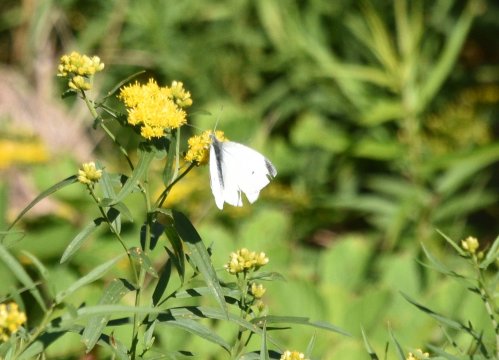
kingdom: Animalia
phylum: Arthropoda
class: Insecta
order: Lepidoptera
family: Pieridae
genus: Pieris
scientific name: Pieris rapae
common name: Cabbage White
